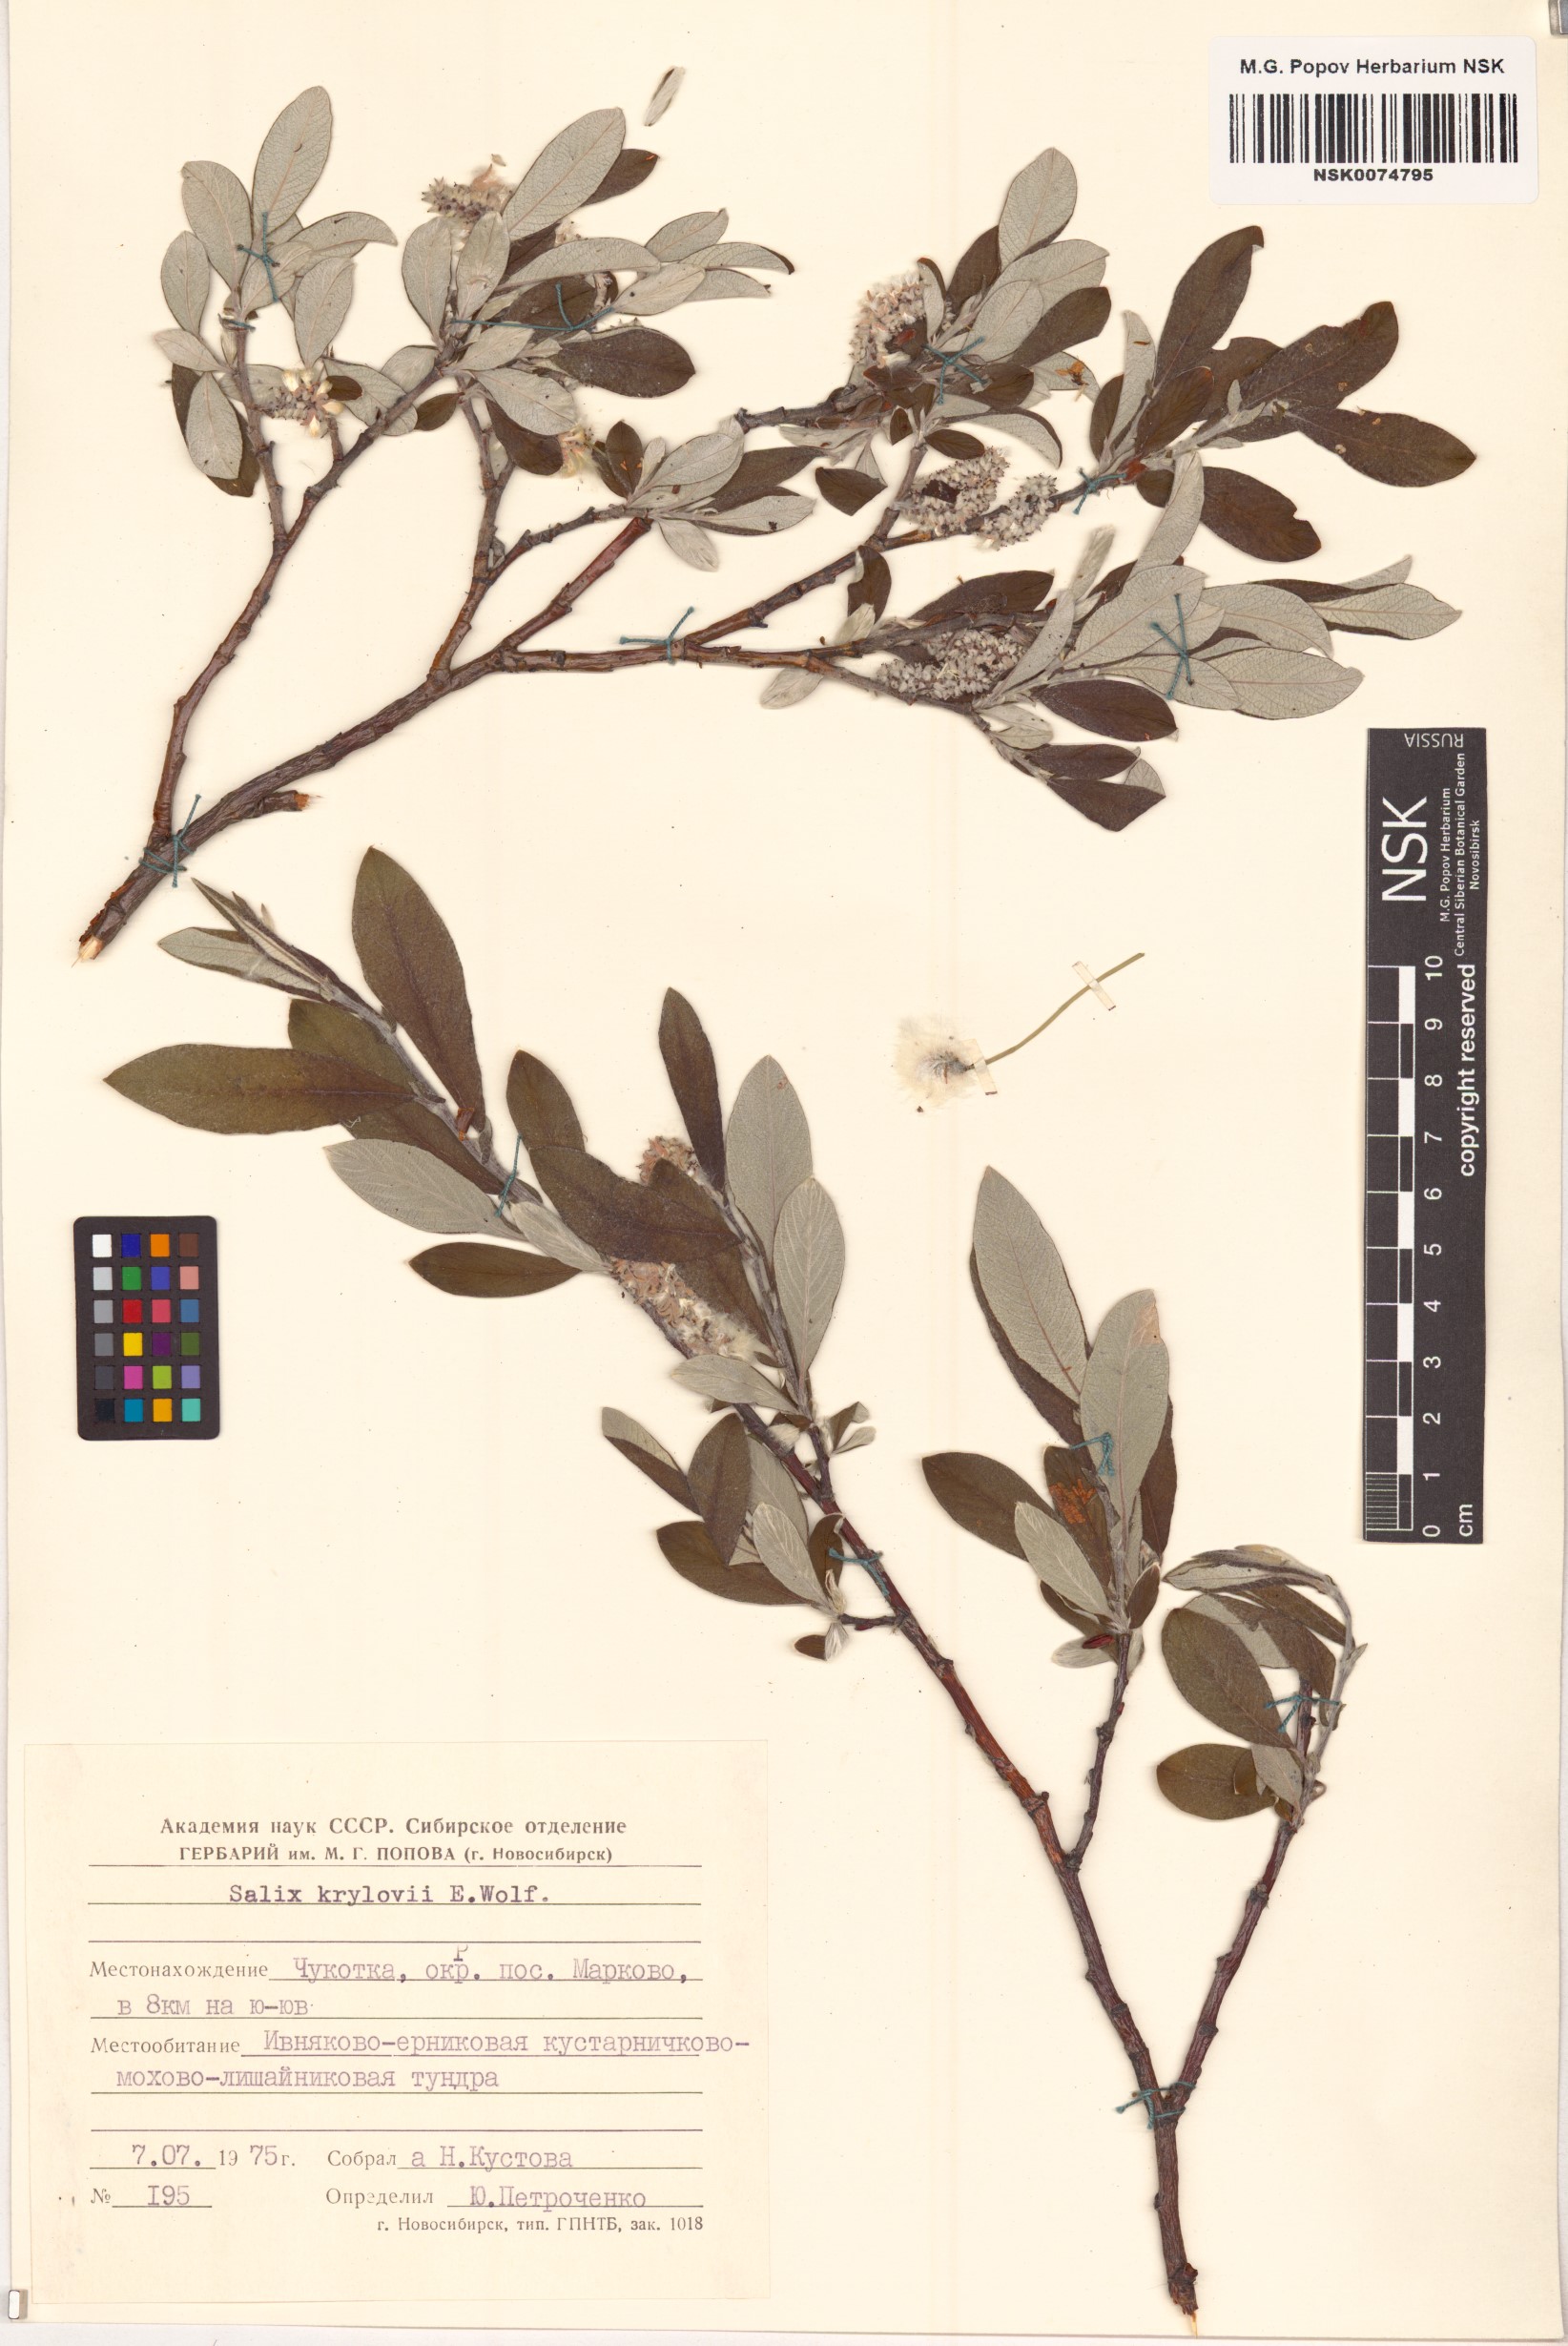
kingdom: Plantae
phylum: Tracheophyta
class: Magnoliopsida
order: Malpighiales
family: Salicaceae
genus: Salix
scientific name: Salix krylovii
